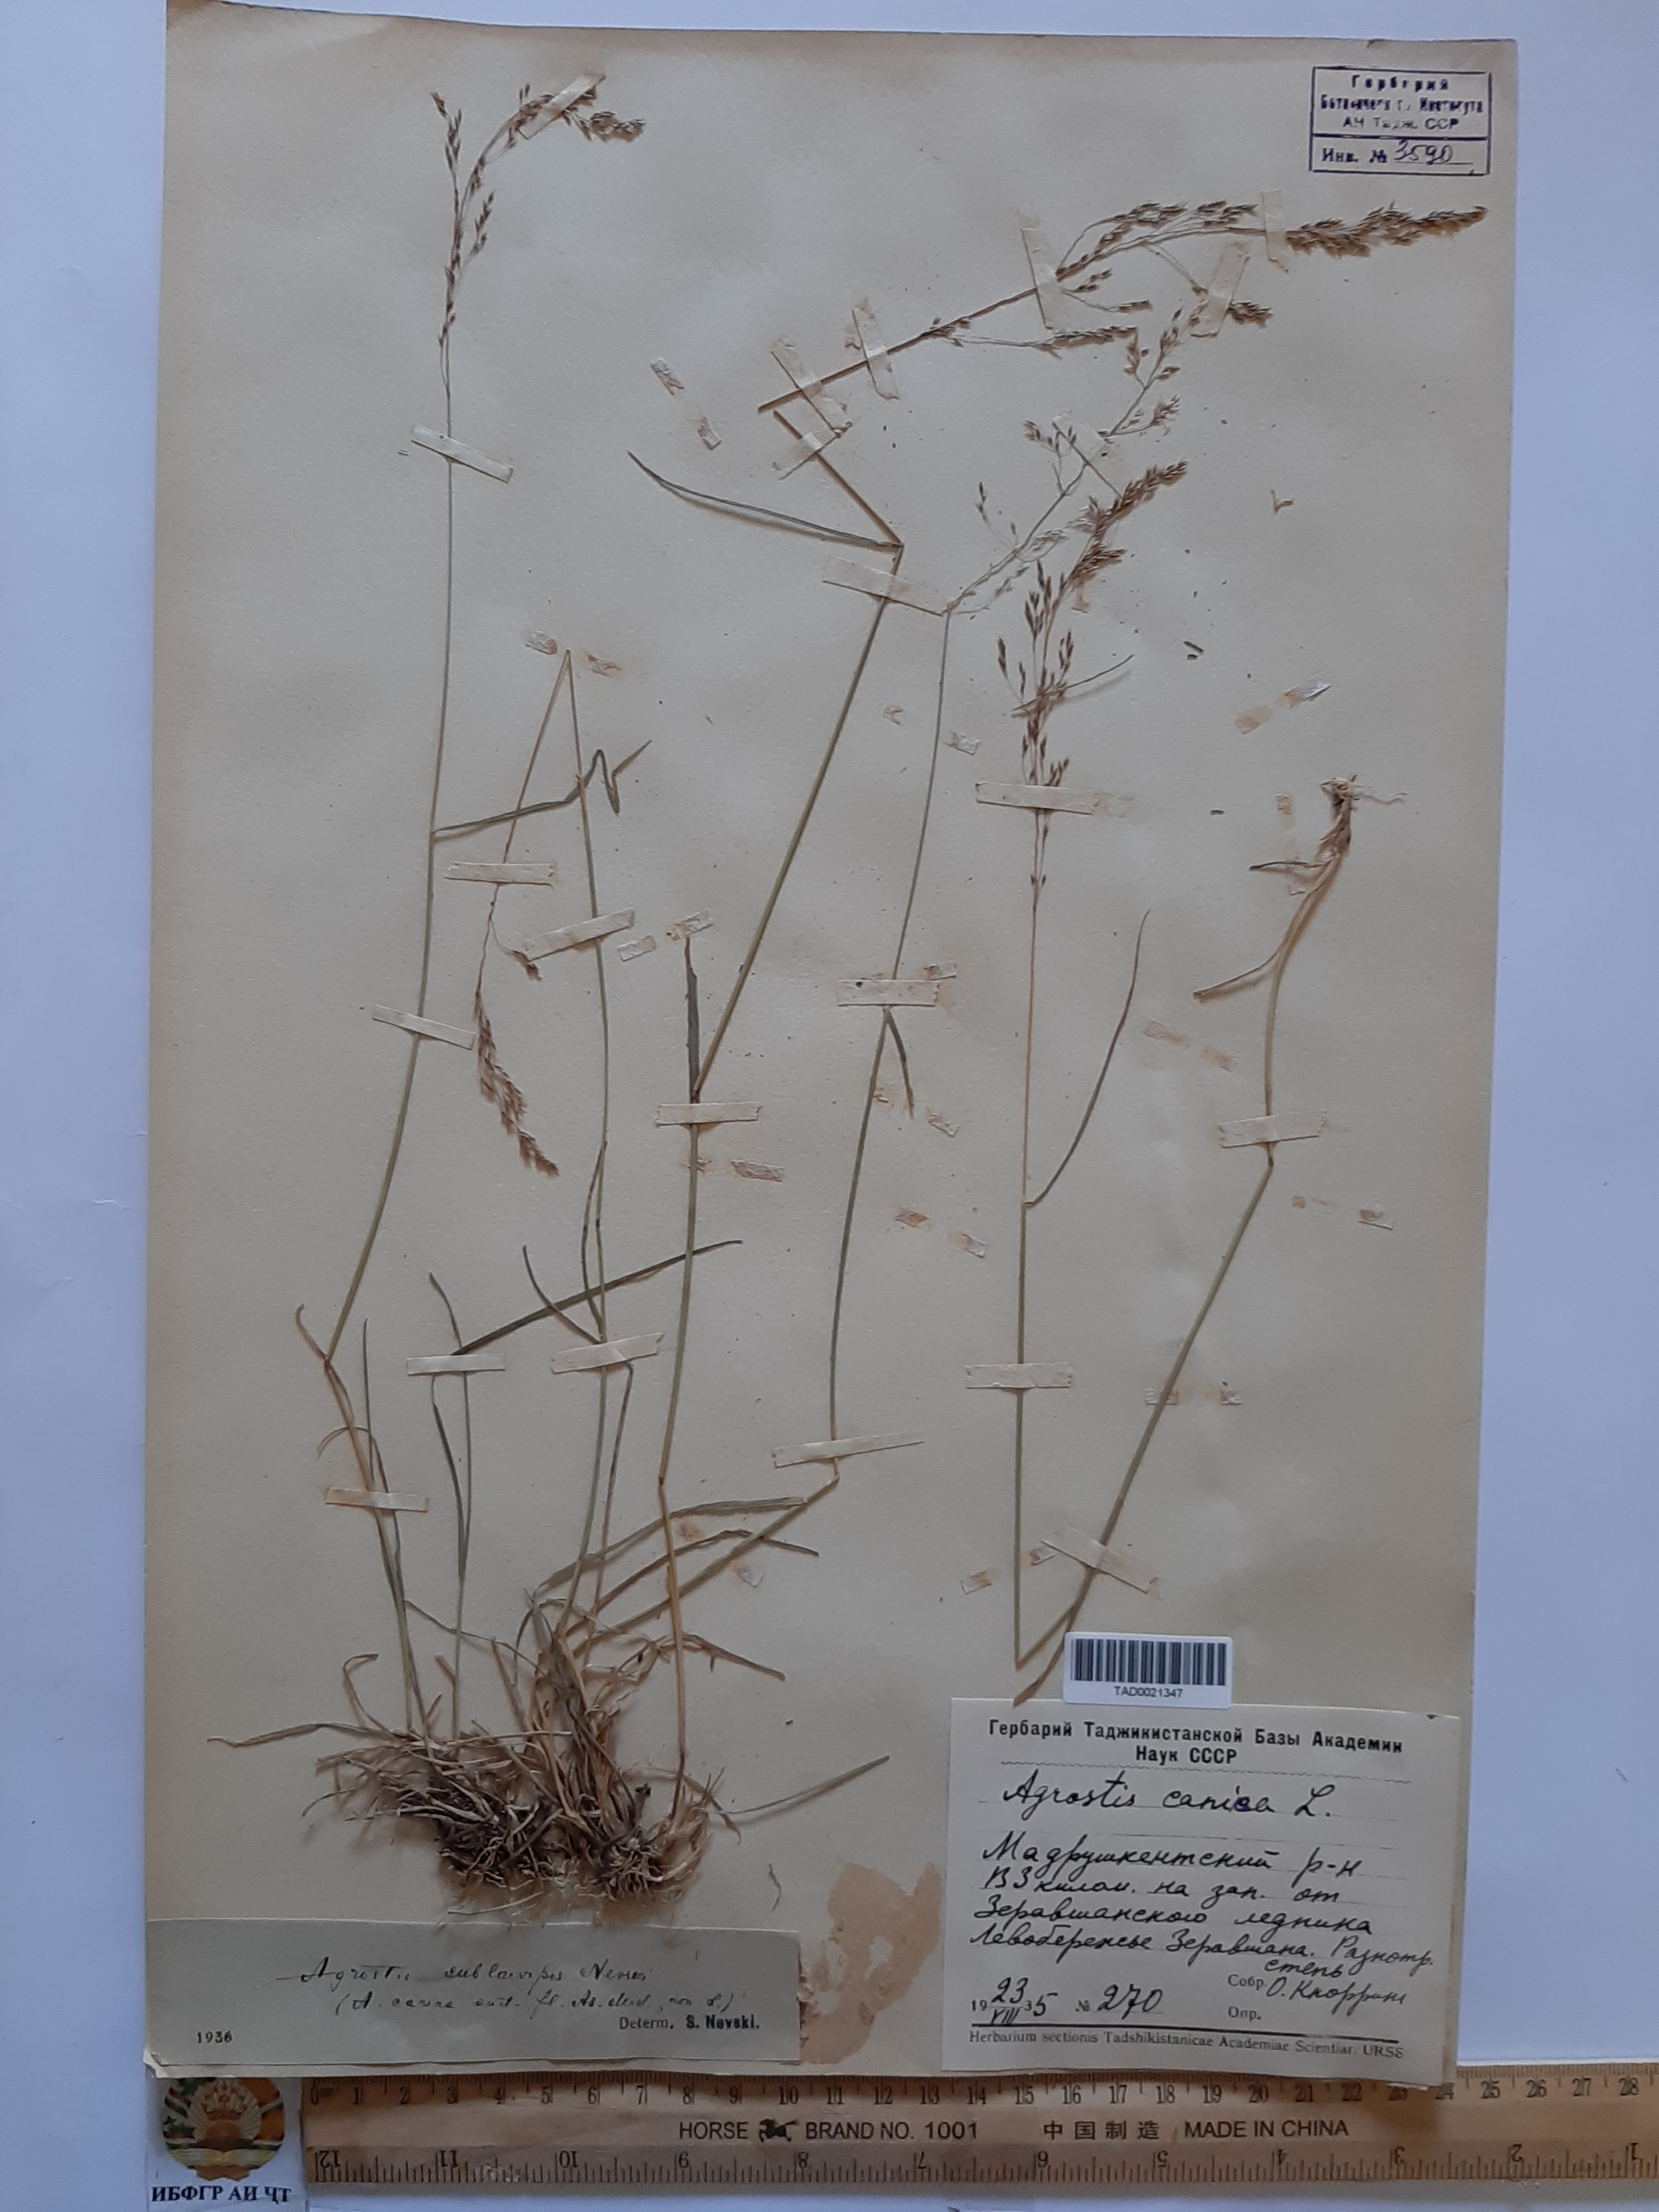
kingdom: Plantae
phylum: Tracheophyta
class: Liliopsida
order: Poales
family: Poaceae
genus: Agrostis
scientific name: Agrostis canina
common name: Velvet bent
